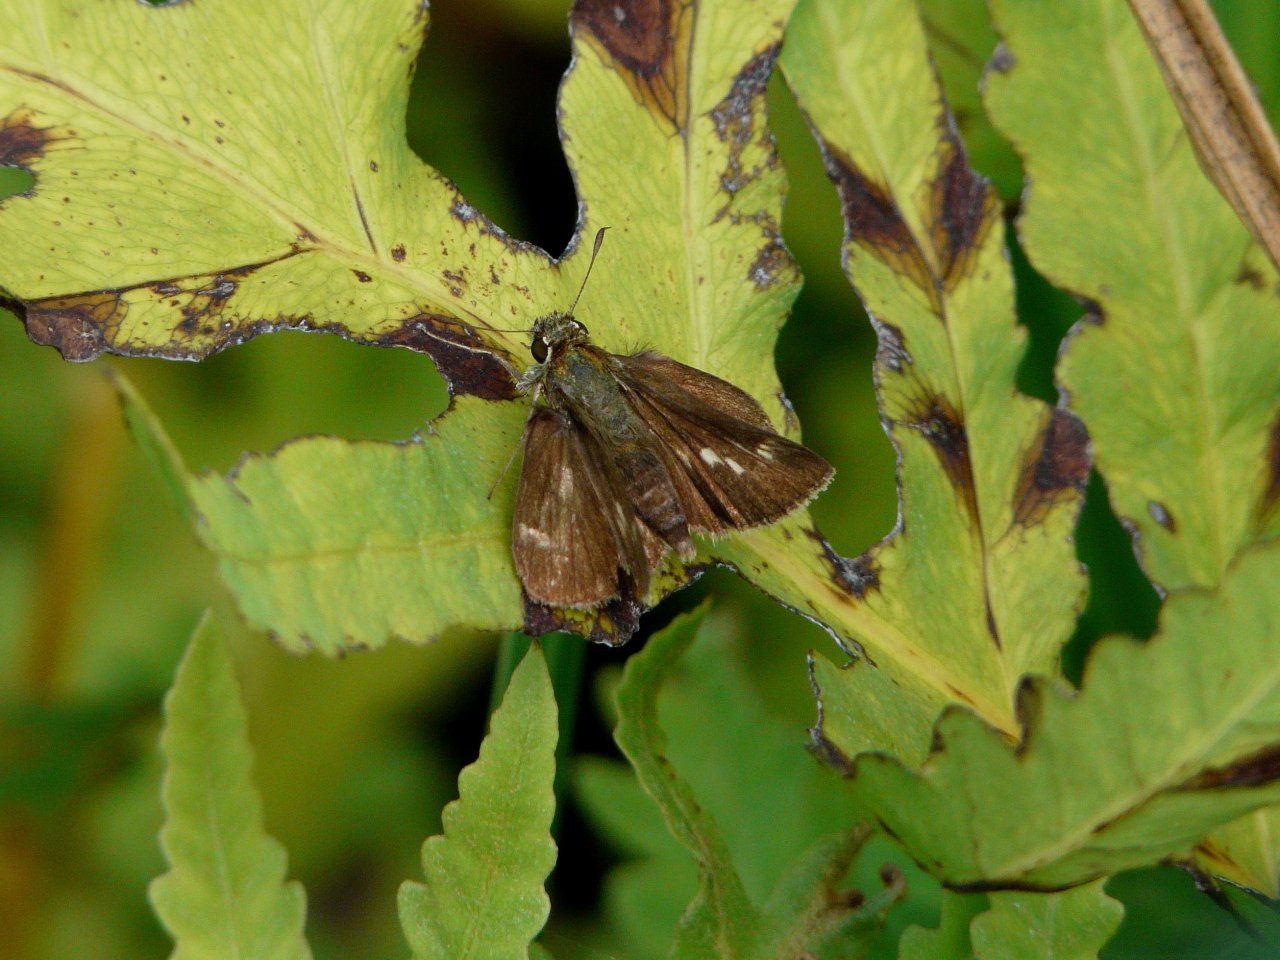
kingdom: Animalia
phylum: Arthropoda
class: Insecta
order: Lepidoptera
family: Hesperiidae
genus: Polites
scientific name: Polites egeremet
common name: Northern Broken-Dash
